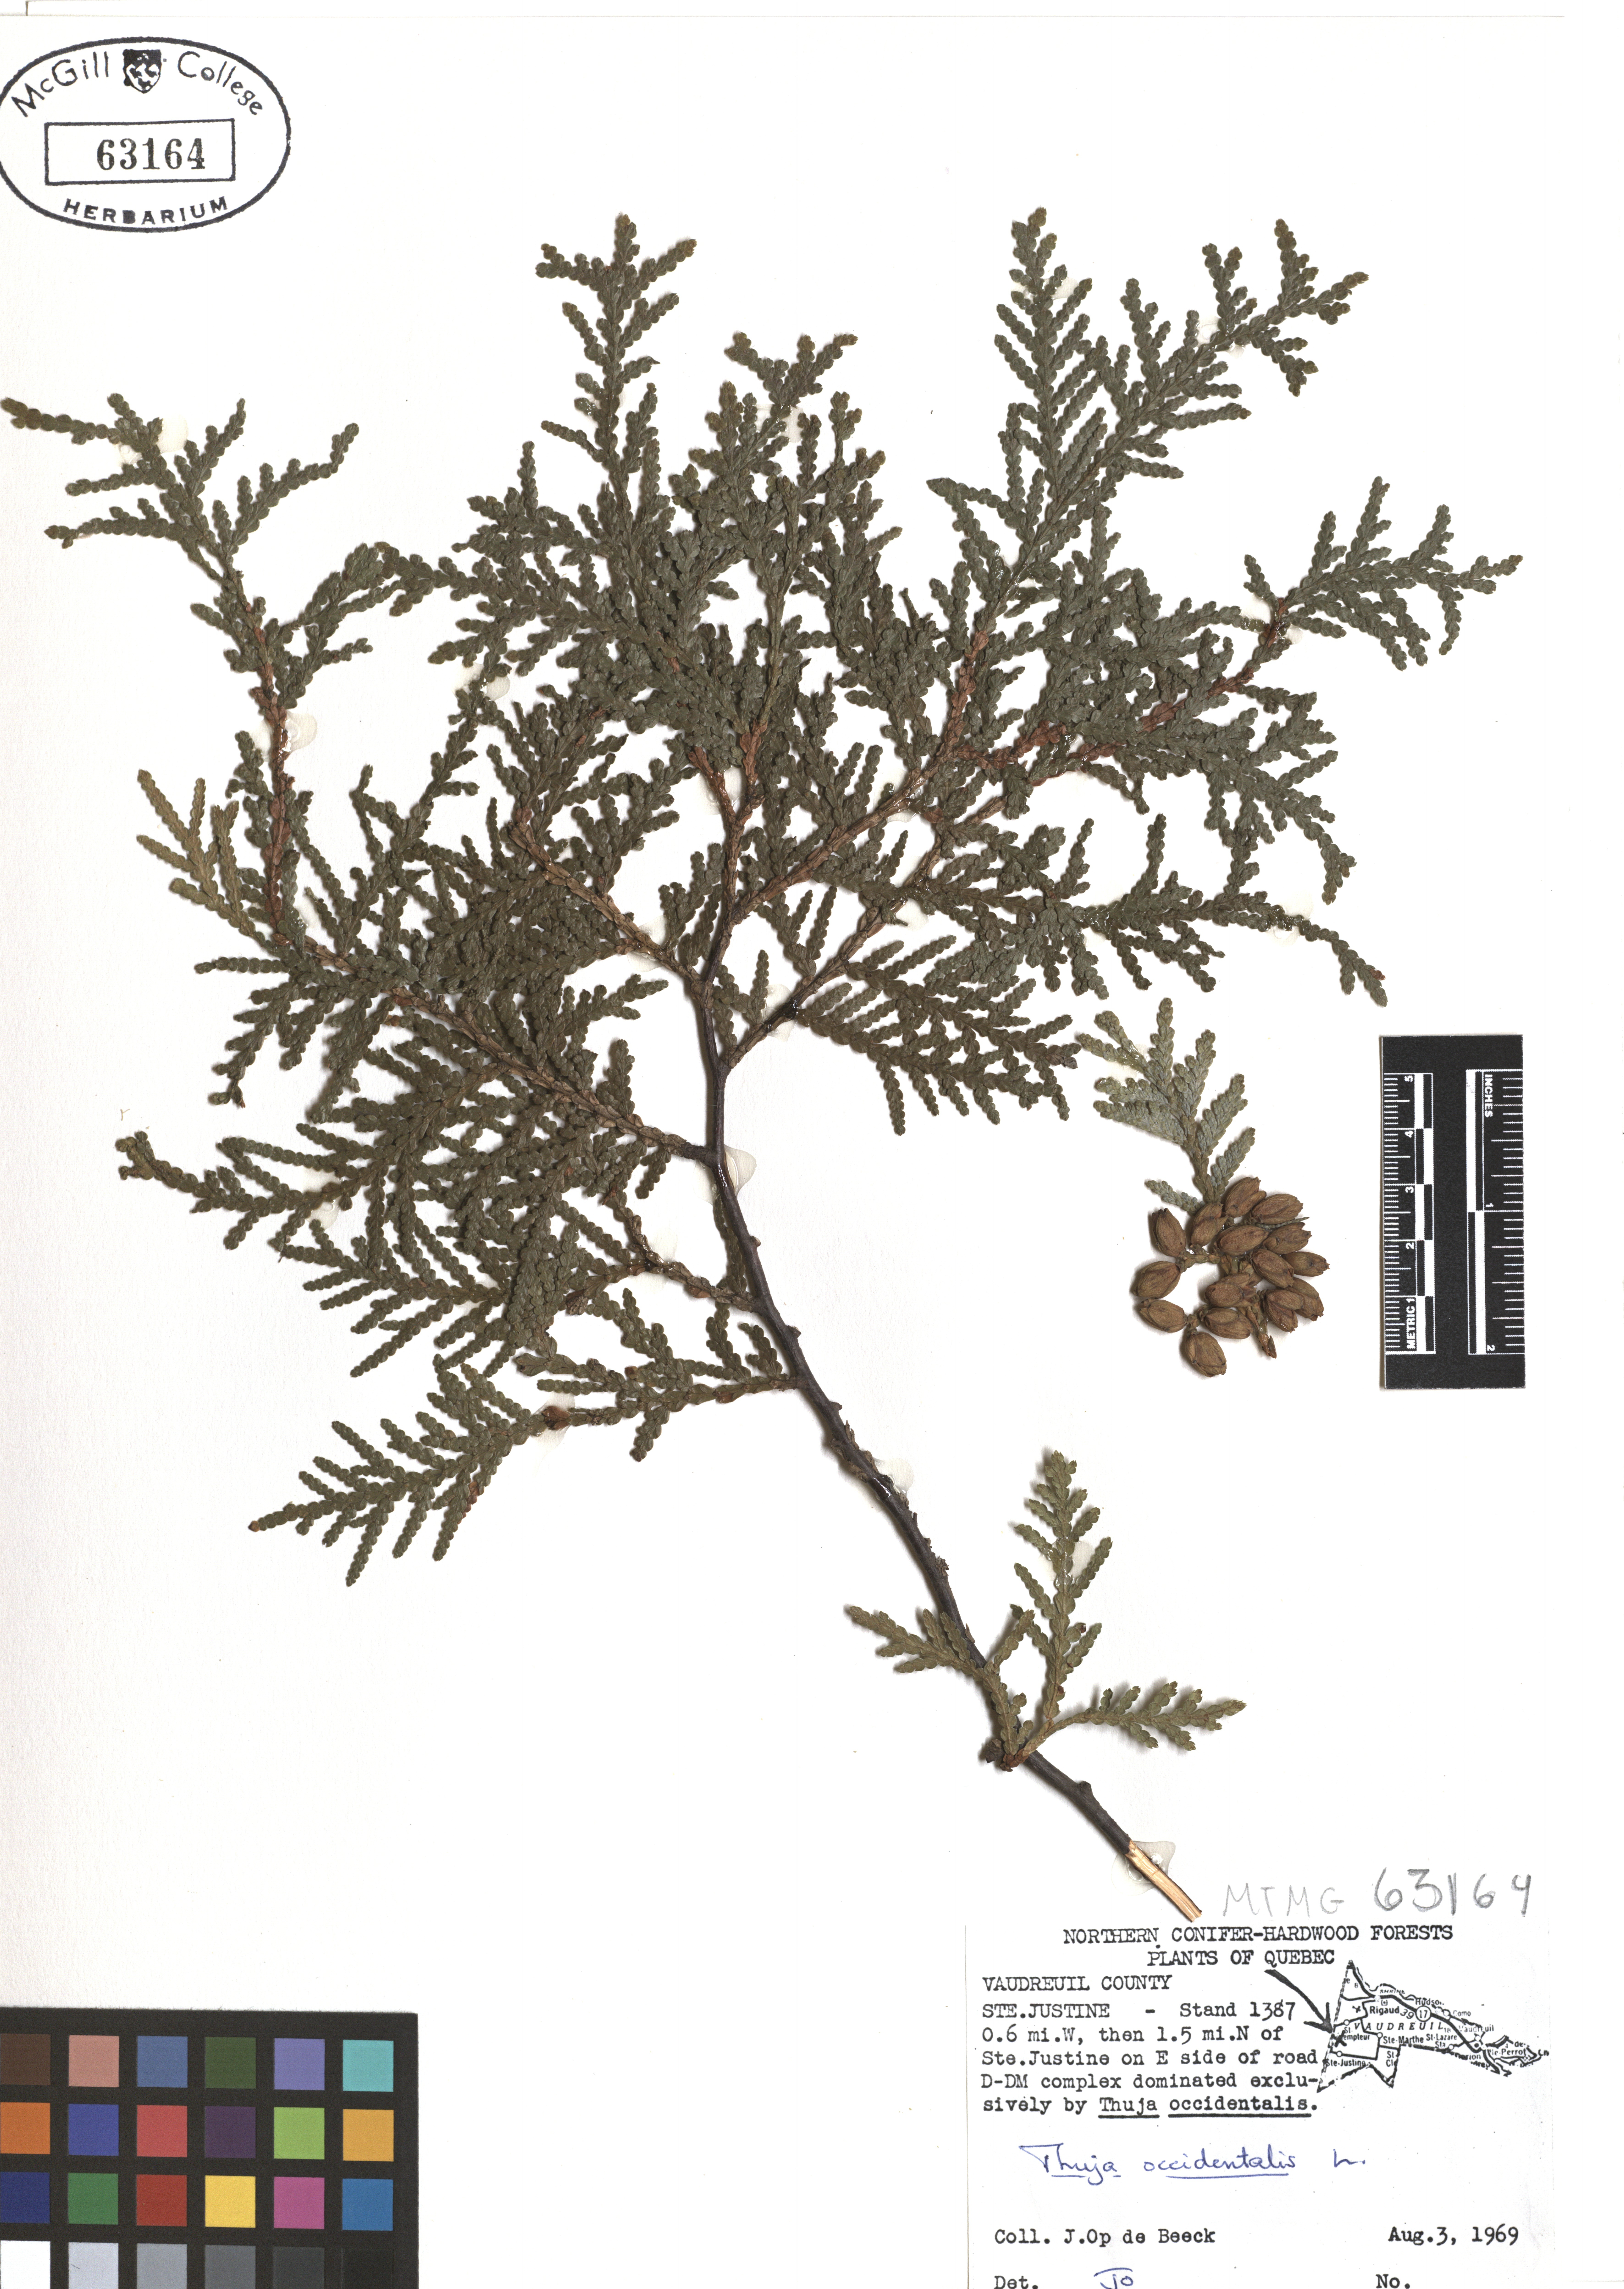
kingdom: Plantae
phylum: Tracheophyta
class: Pinopsida
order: Pinales
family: Cupressaceae
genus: Thuja
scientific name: Thuja occidentalis
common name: Northern white-cedar
